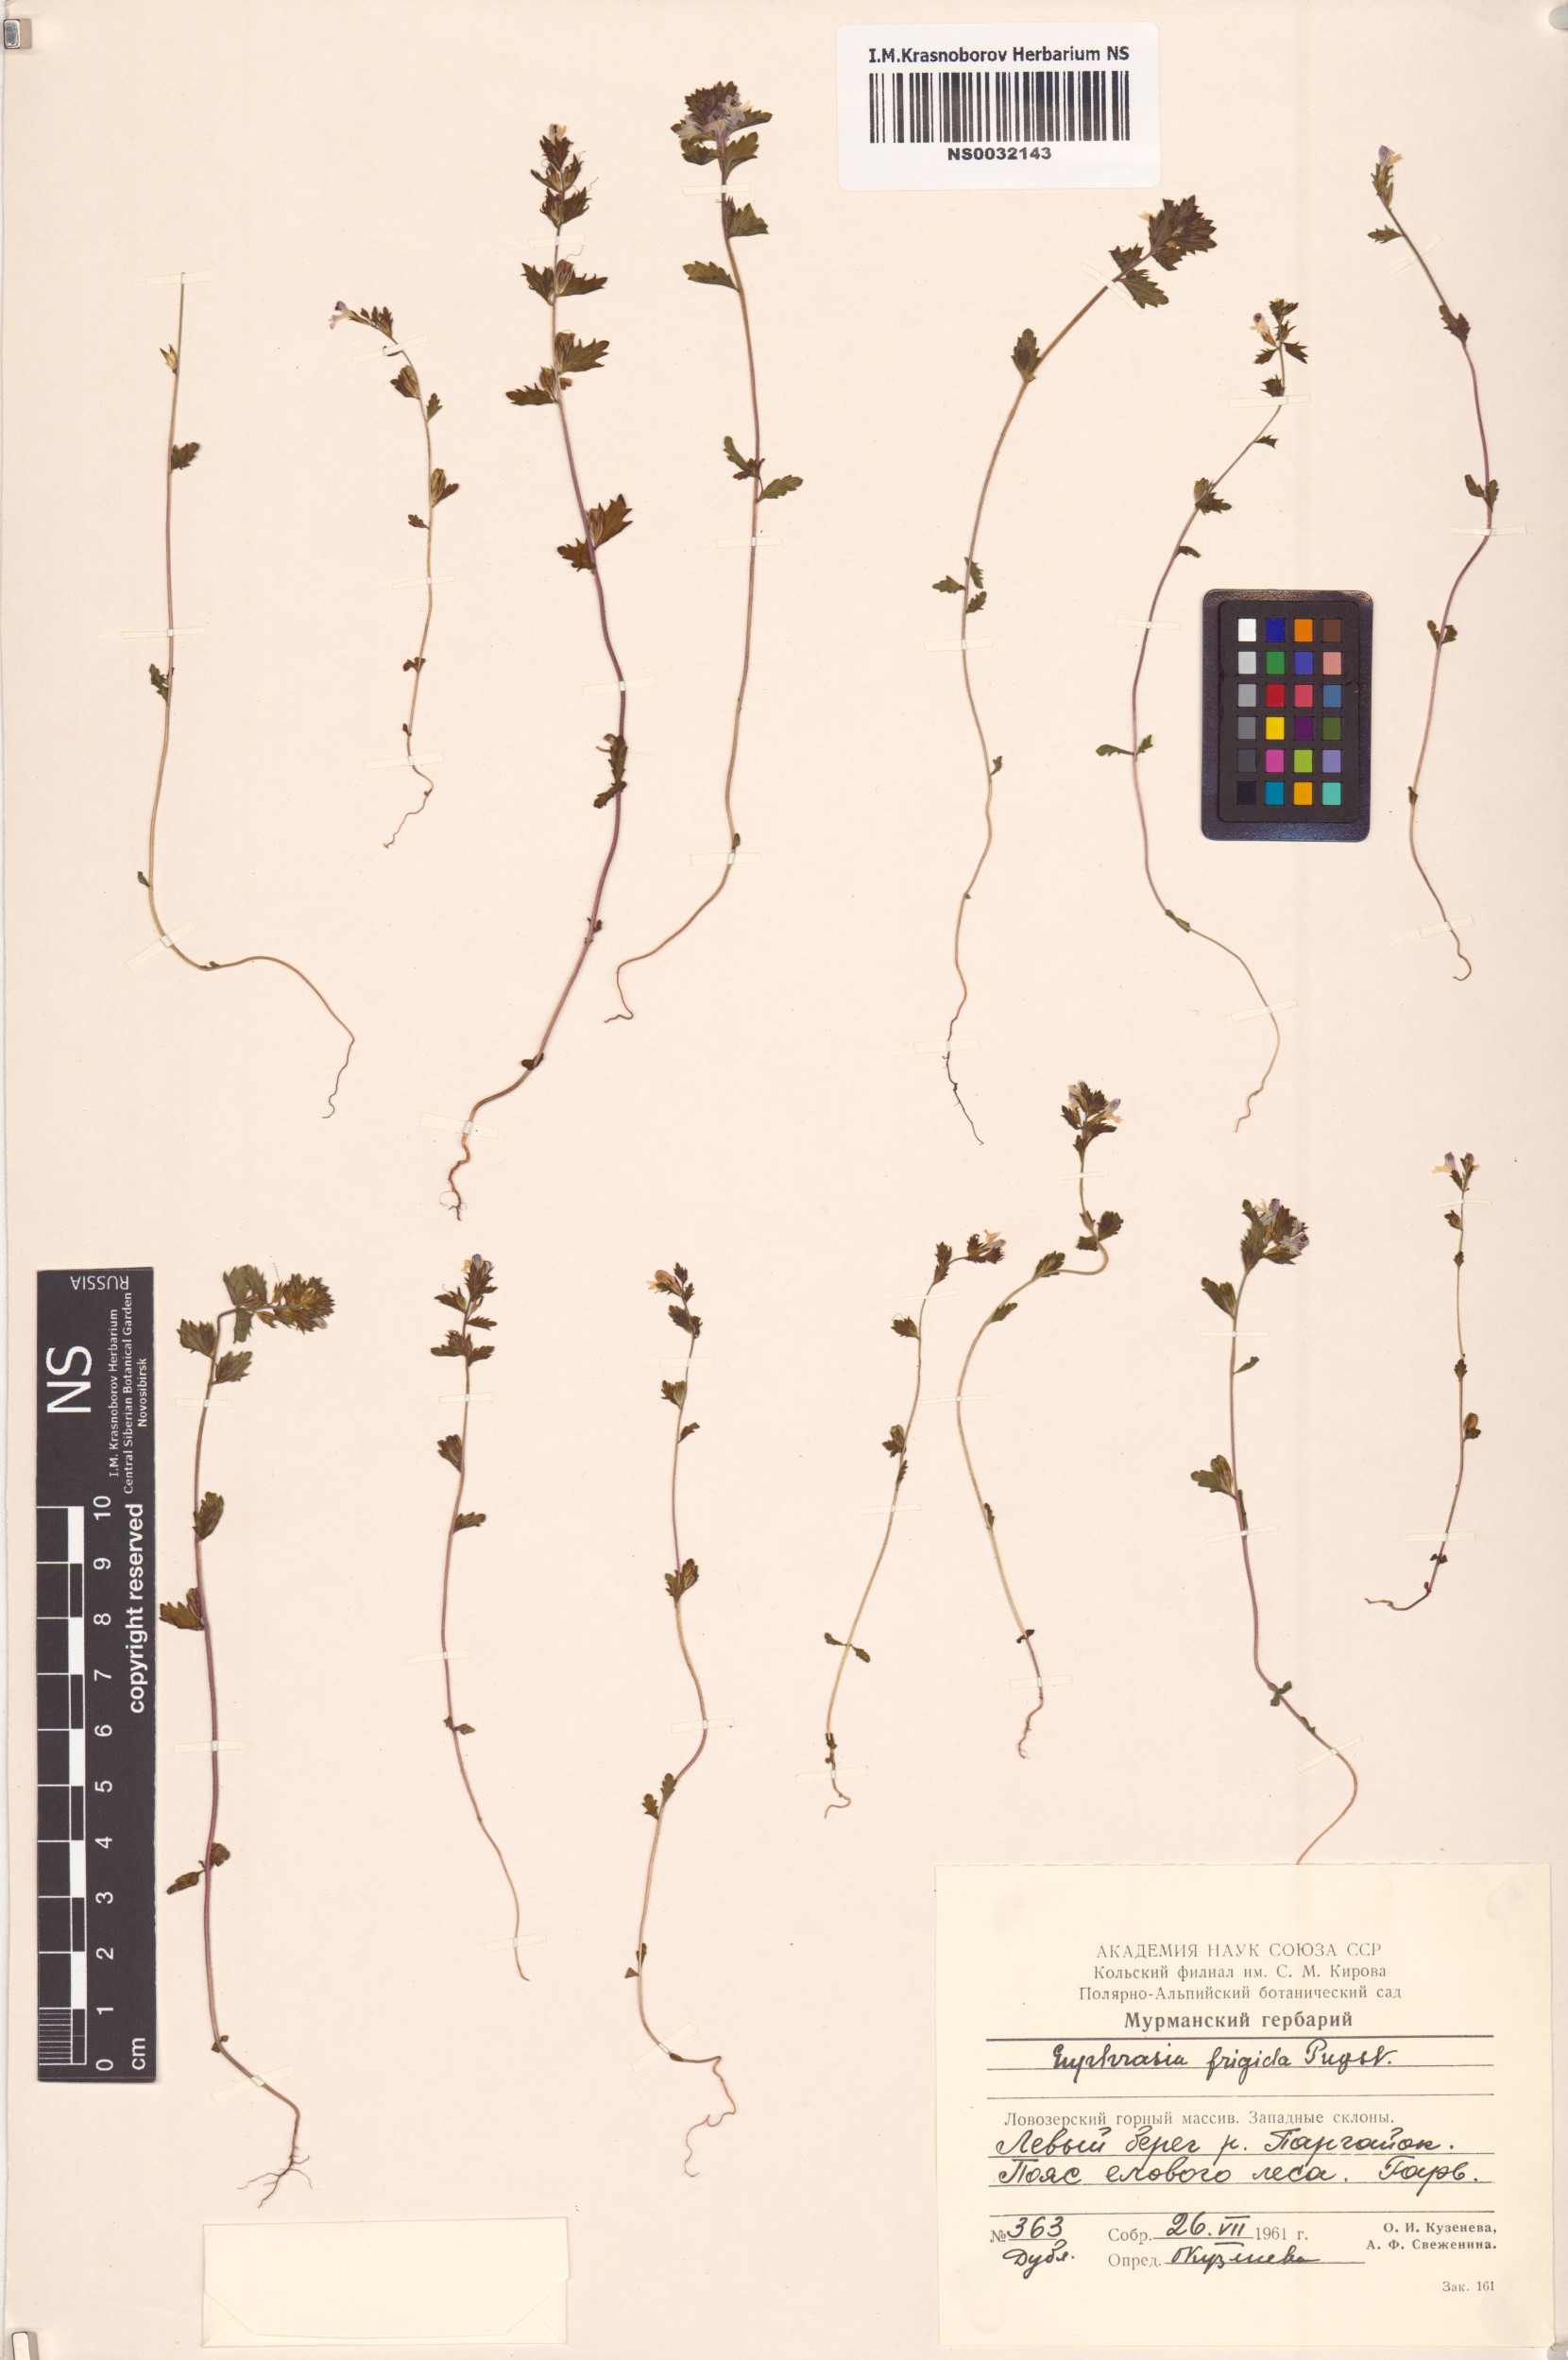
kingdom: Plantae
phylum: Tracheophyta
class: Magnoliopsida
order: Lamiales
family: Orobanchaceae
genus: Euphrasia
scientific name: Euphrasia frigida
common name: An eyebright
